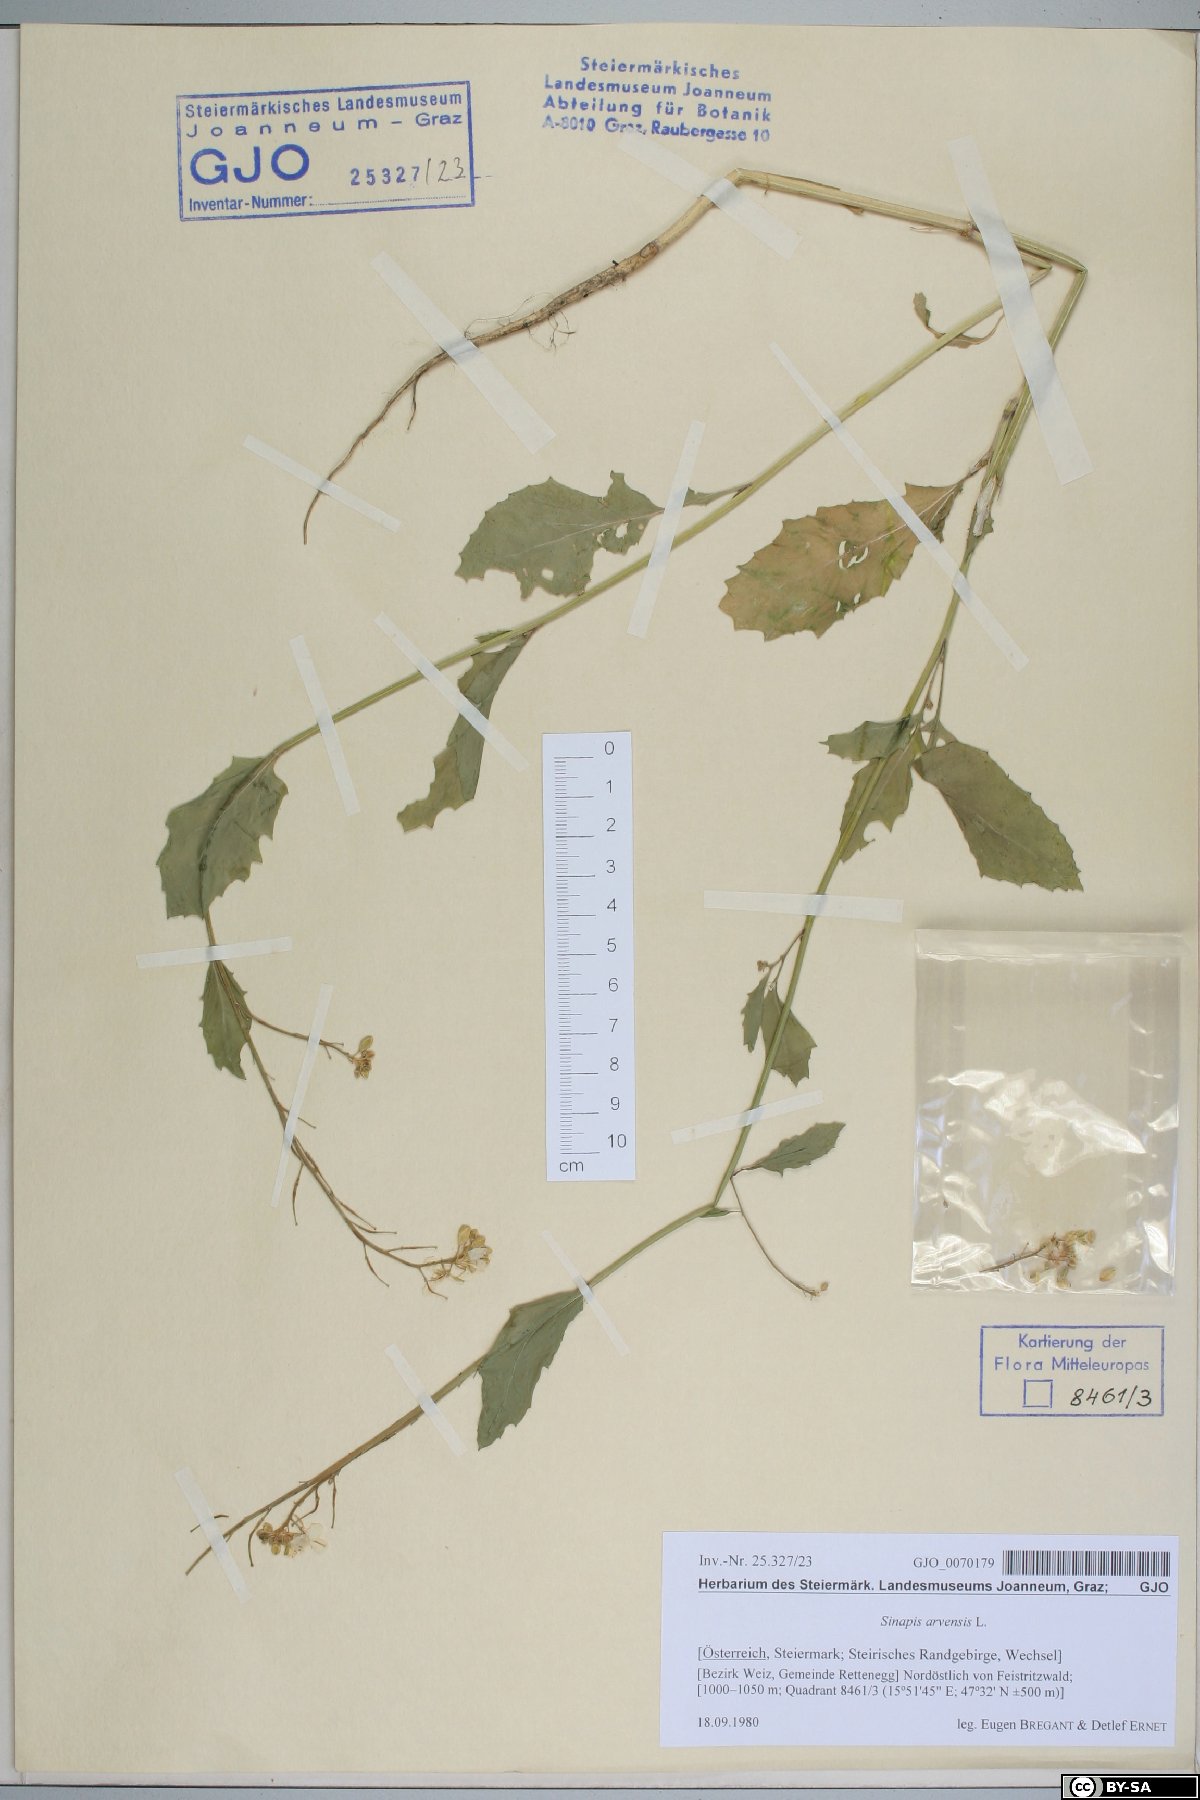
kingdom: Plantae
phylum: Tracheophyta
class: Magnoliopsida
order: Brassicales
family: Brassicaceae
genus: Sinapis
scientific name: Sinapis arvensis
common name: Charlock
